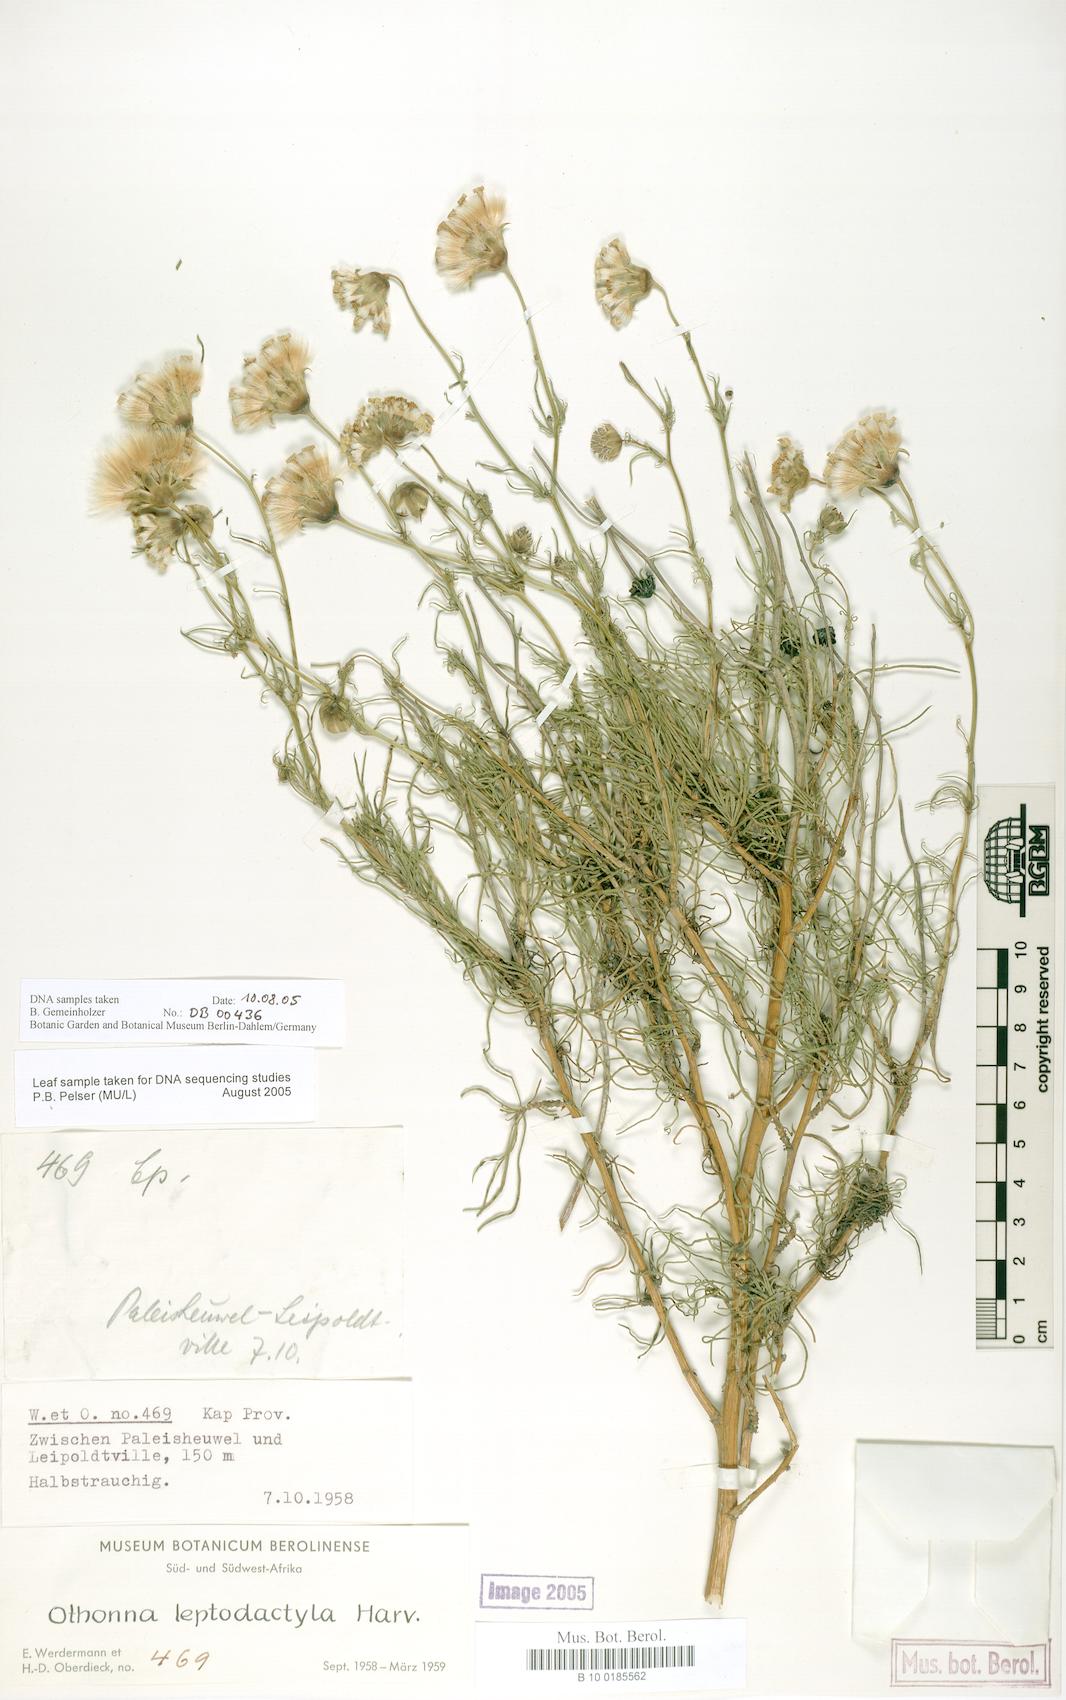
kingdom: Plantae
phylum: Tracheophyta
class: Magnoliopsida
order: Asterales
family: Asteraceae
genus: Othonna
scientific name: Othonna leptodactyla
